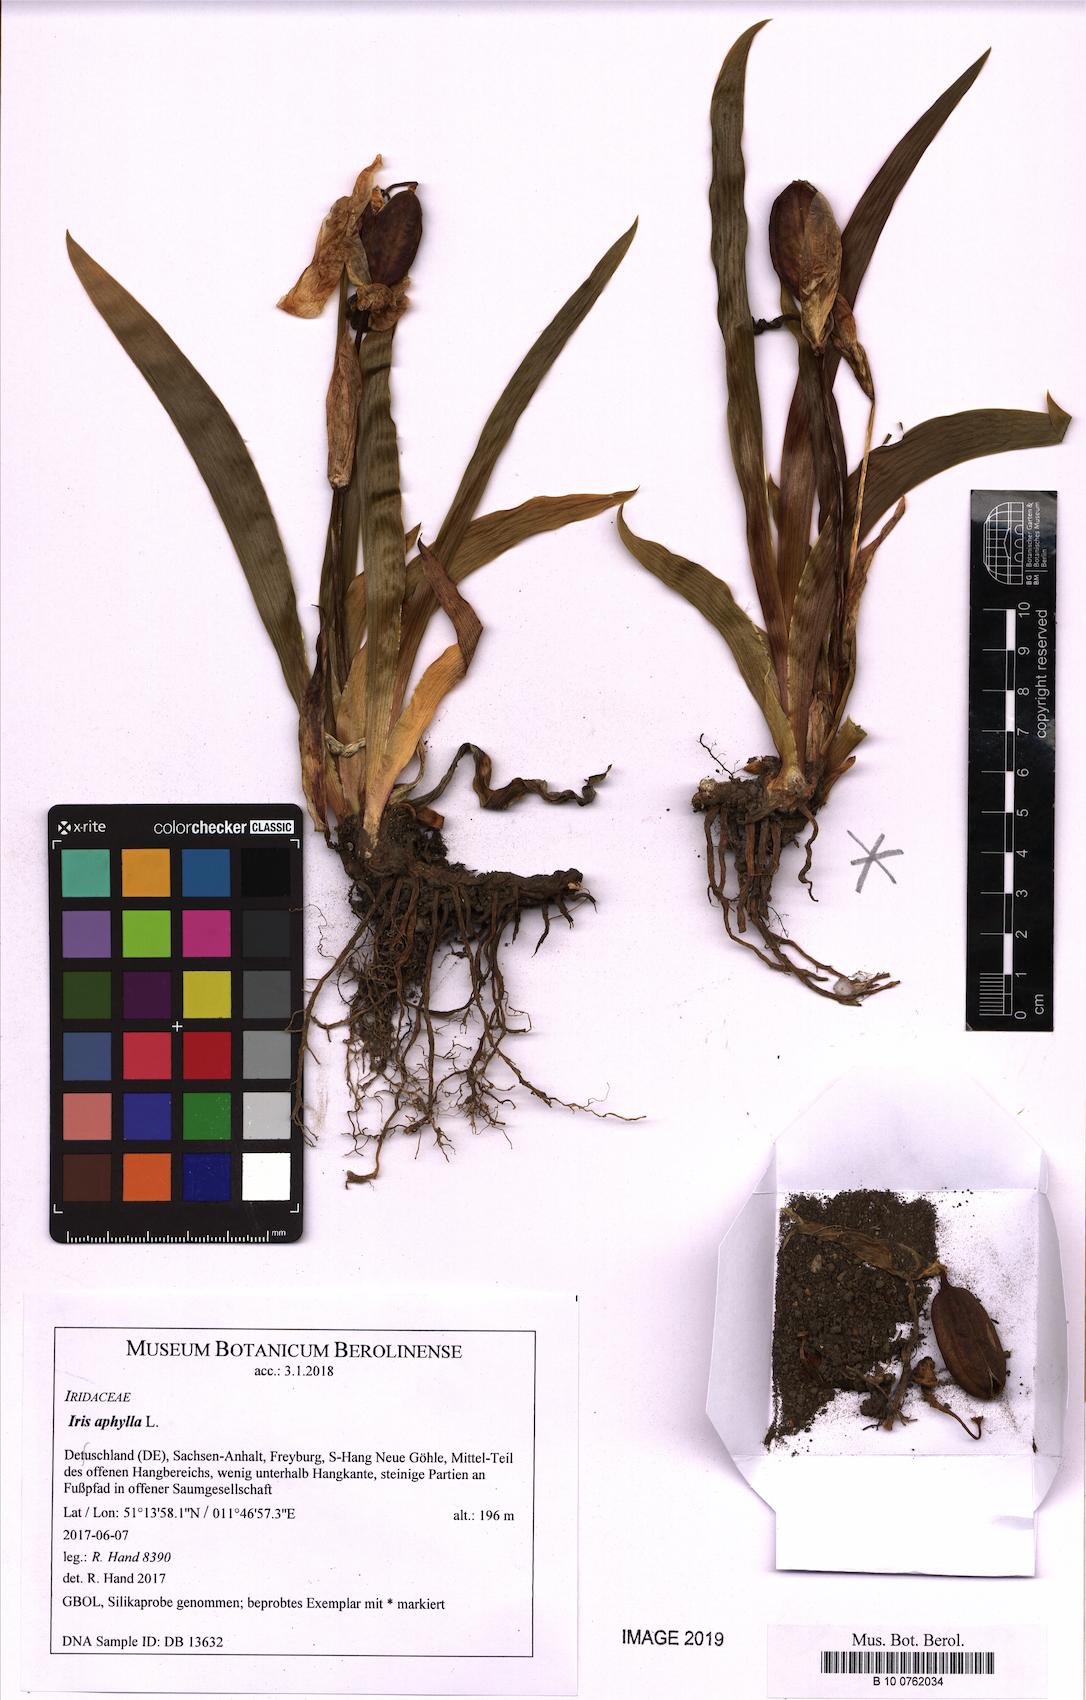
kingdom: Plantae
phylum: Tracheophyta
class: Liliopsida
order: Asparagales
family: Iridaceae
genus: Iris
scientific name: Iris aphylla
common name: Stool iris
